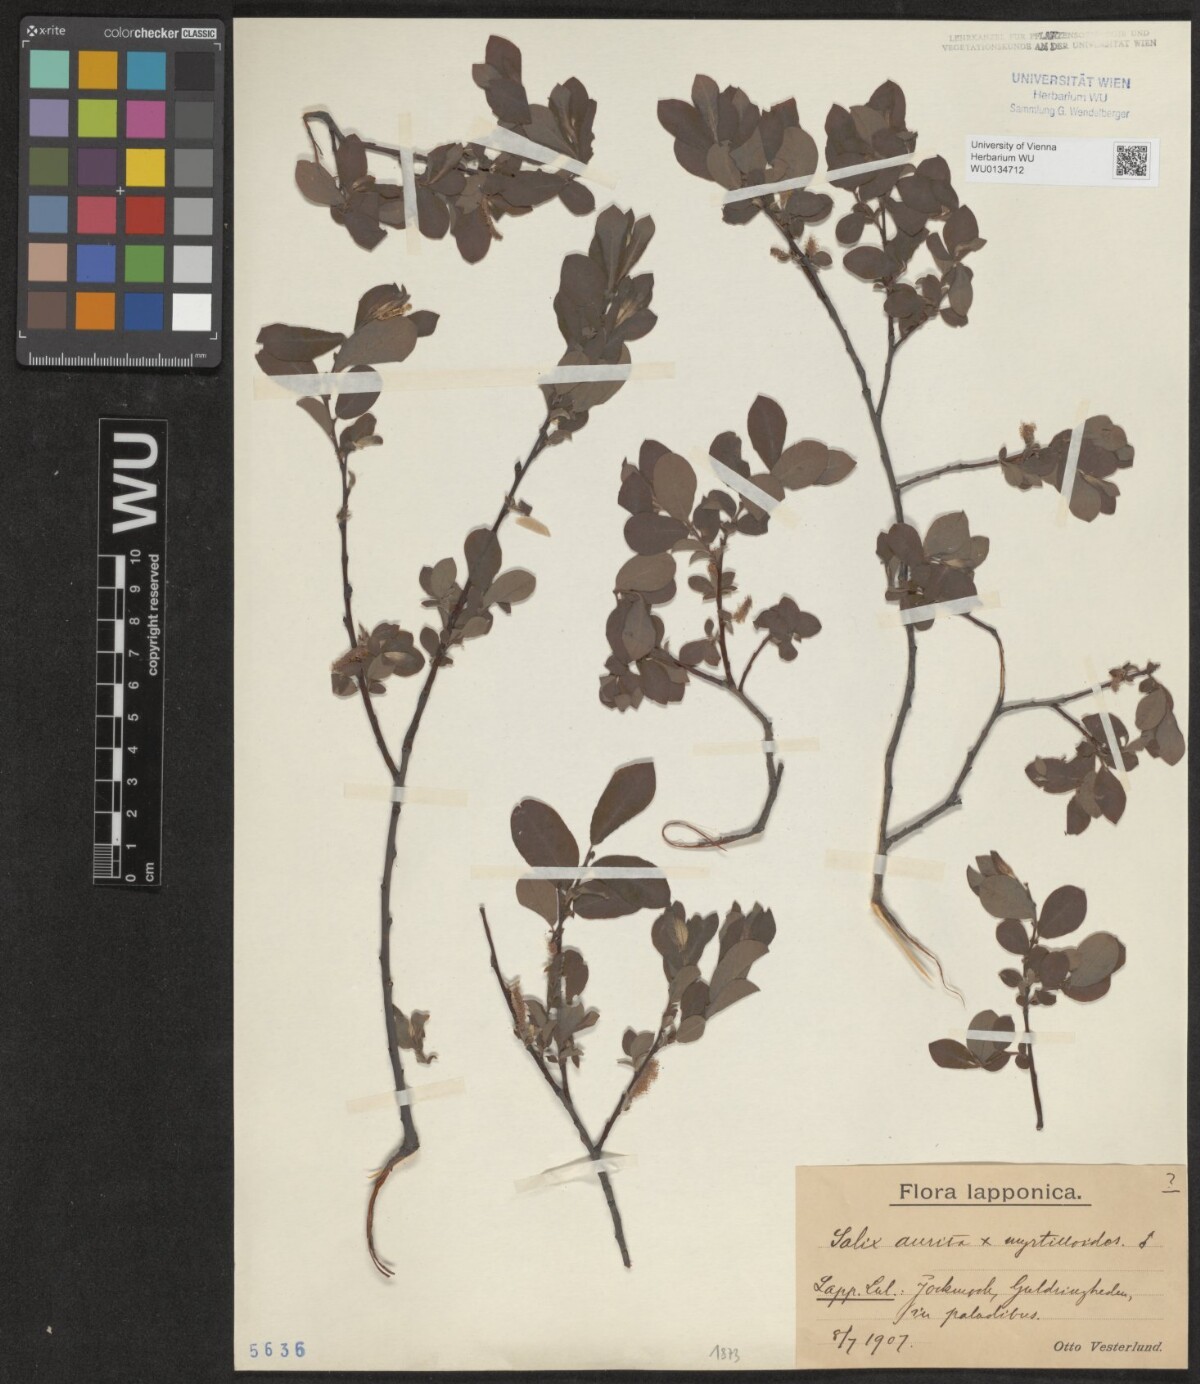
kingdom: Plantae
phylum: Tracheophyta
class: Magnoliopsida
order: Malpighiales
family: Salicaceae
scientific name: Salicaceae
